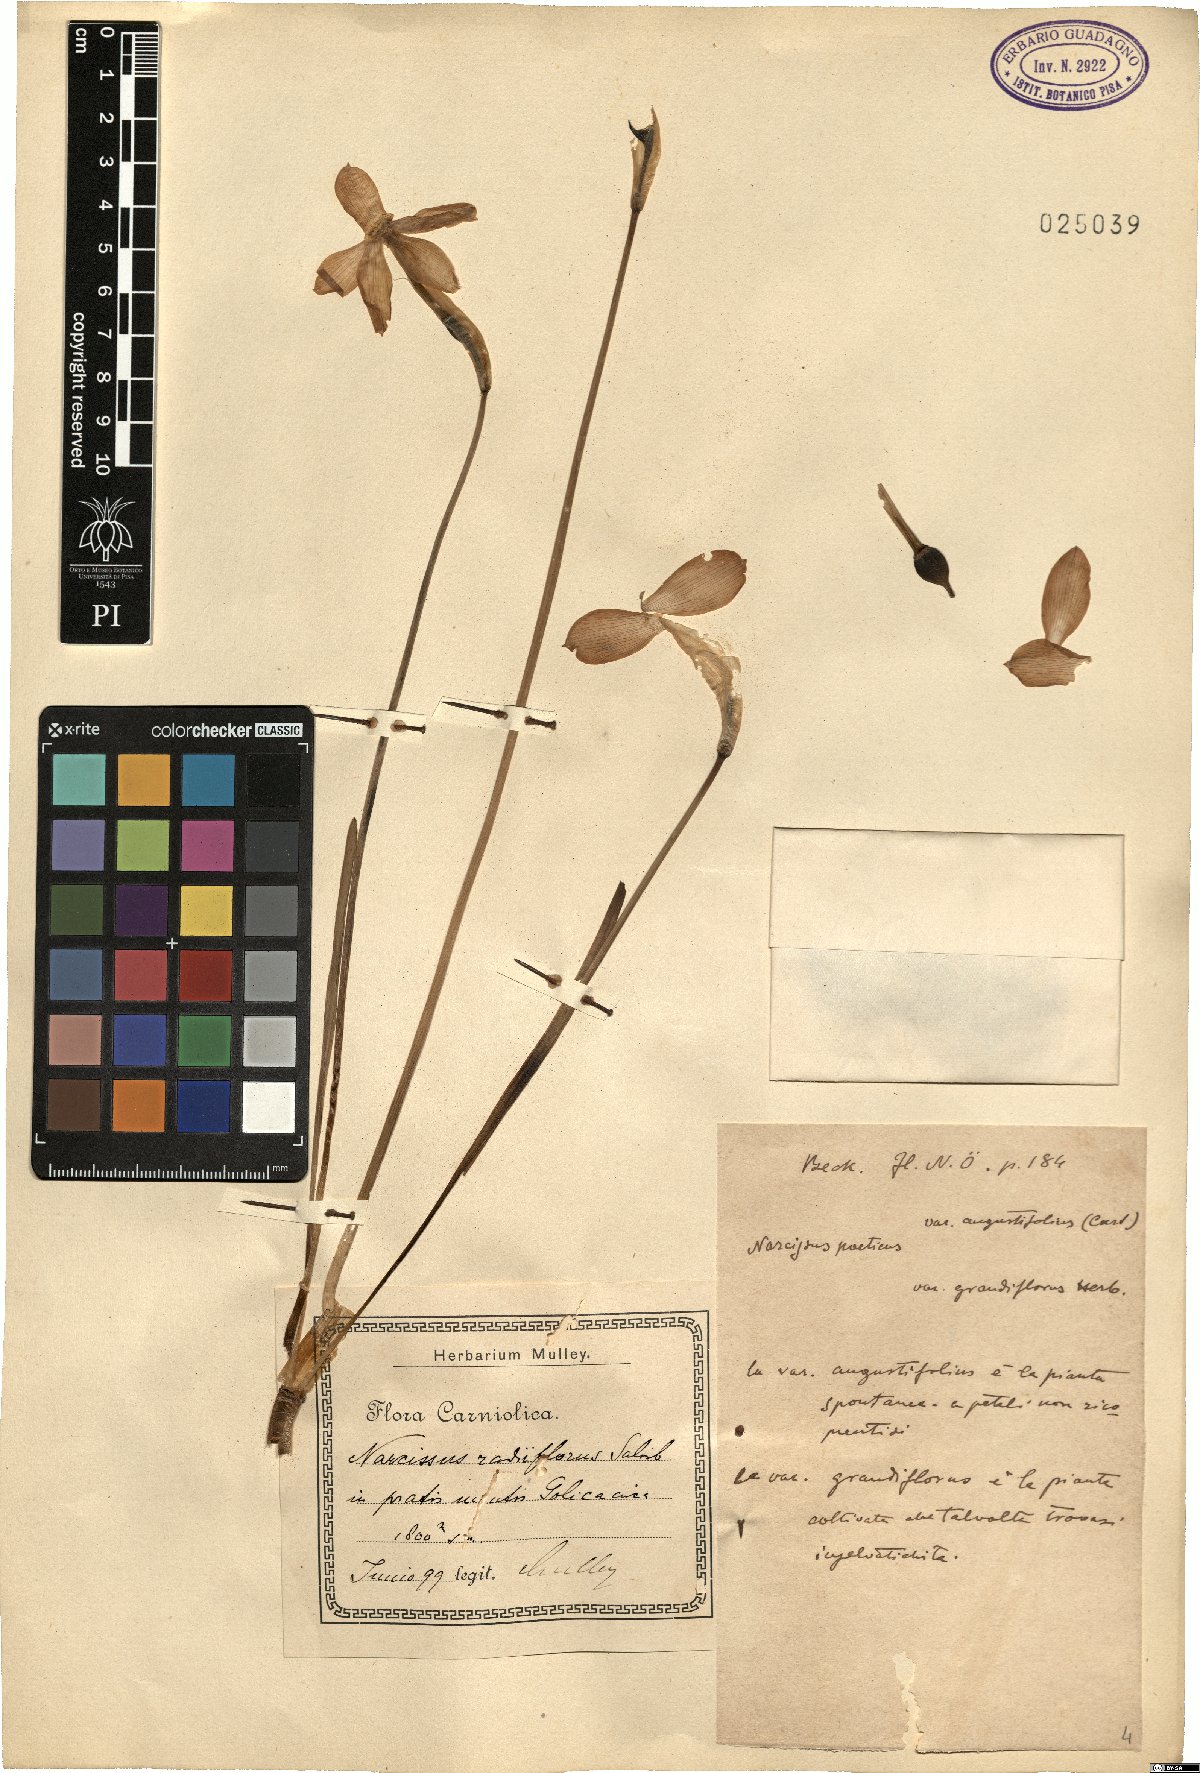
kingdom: Plantae
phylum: Tracheophyta
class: Liliopsida
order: Asparagales
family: Amaryllidaceae
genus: Narcissus
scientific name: Narcissus poeticus
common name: Pheasant's-eye daffodil
